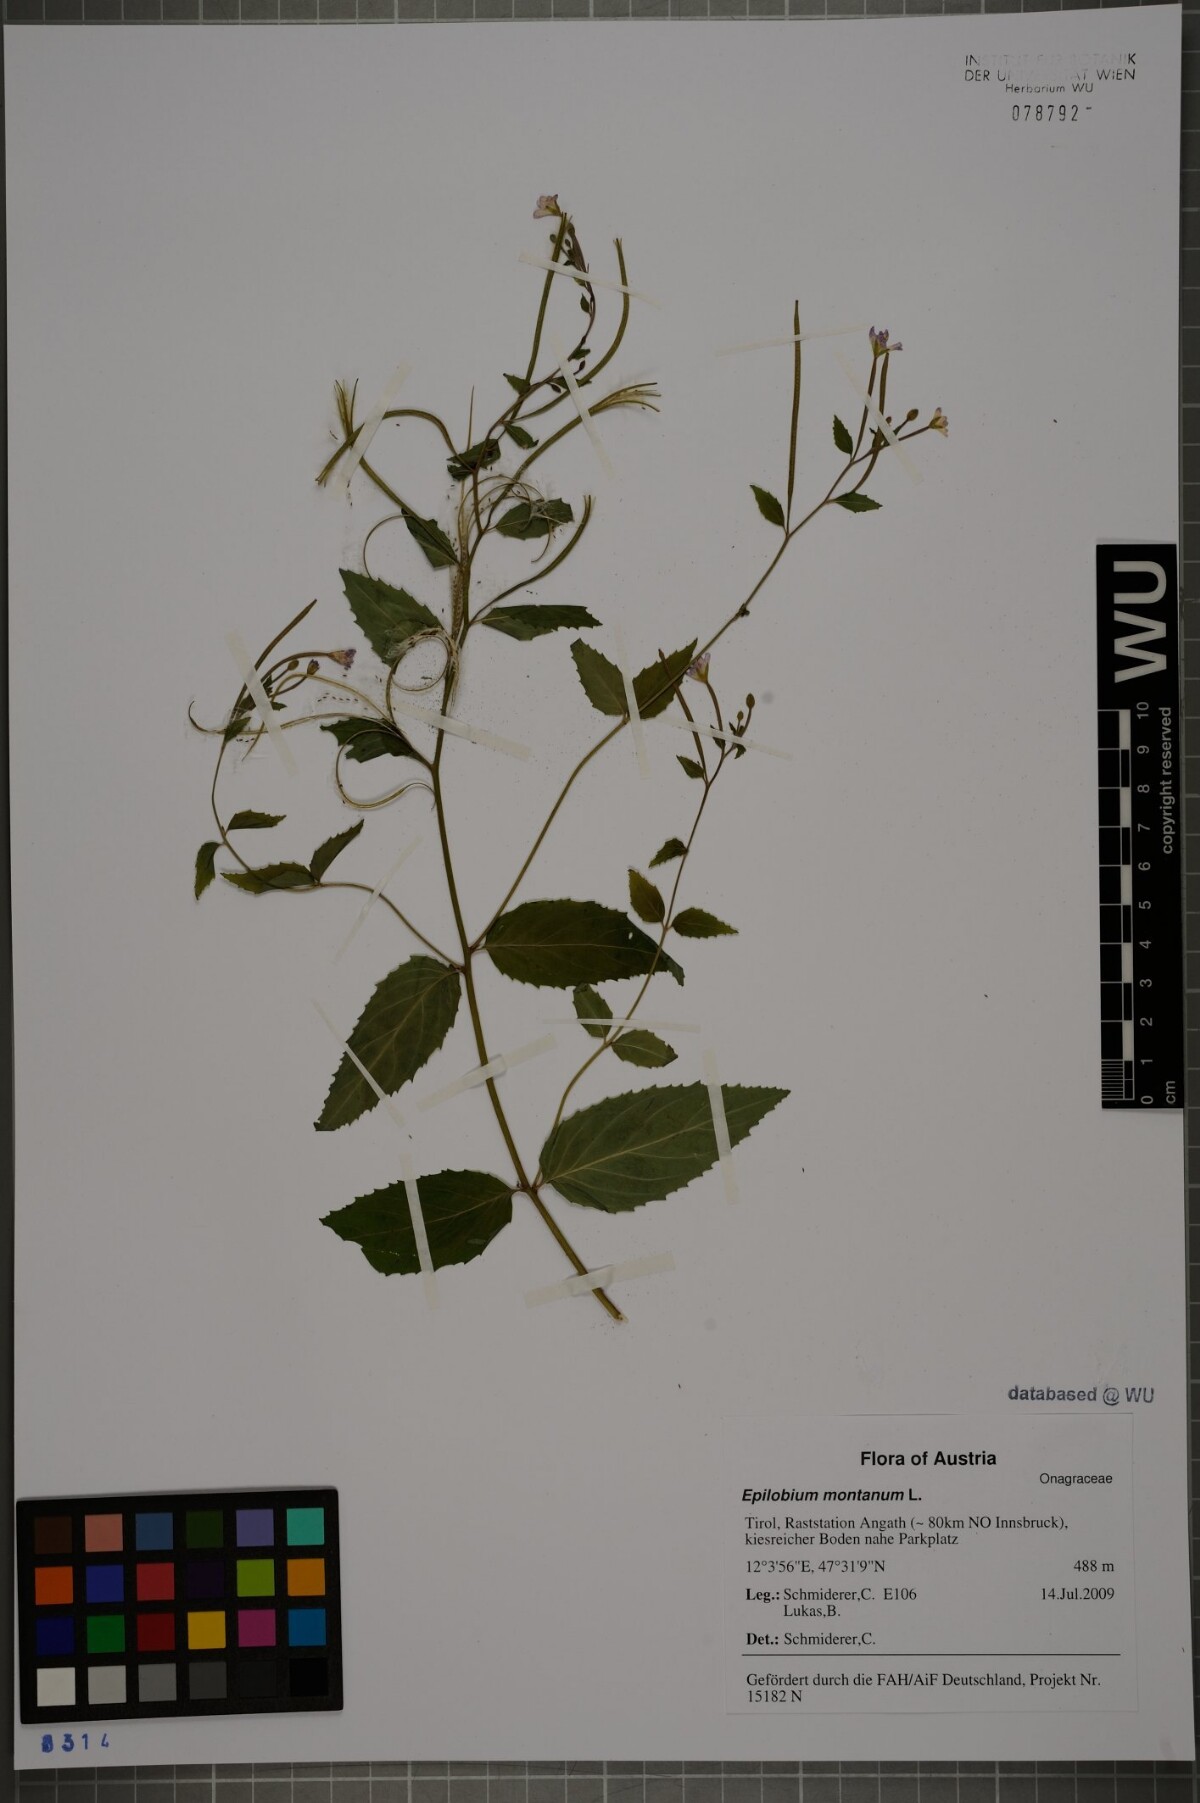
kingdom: Plantae
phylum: Tracheophyta
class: Magnoliopsida
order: Myrtales
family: Onagraceae
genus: Epilobium
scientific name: Epilobium montanum
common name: Broad-leaved willowherb
